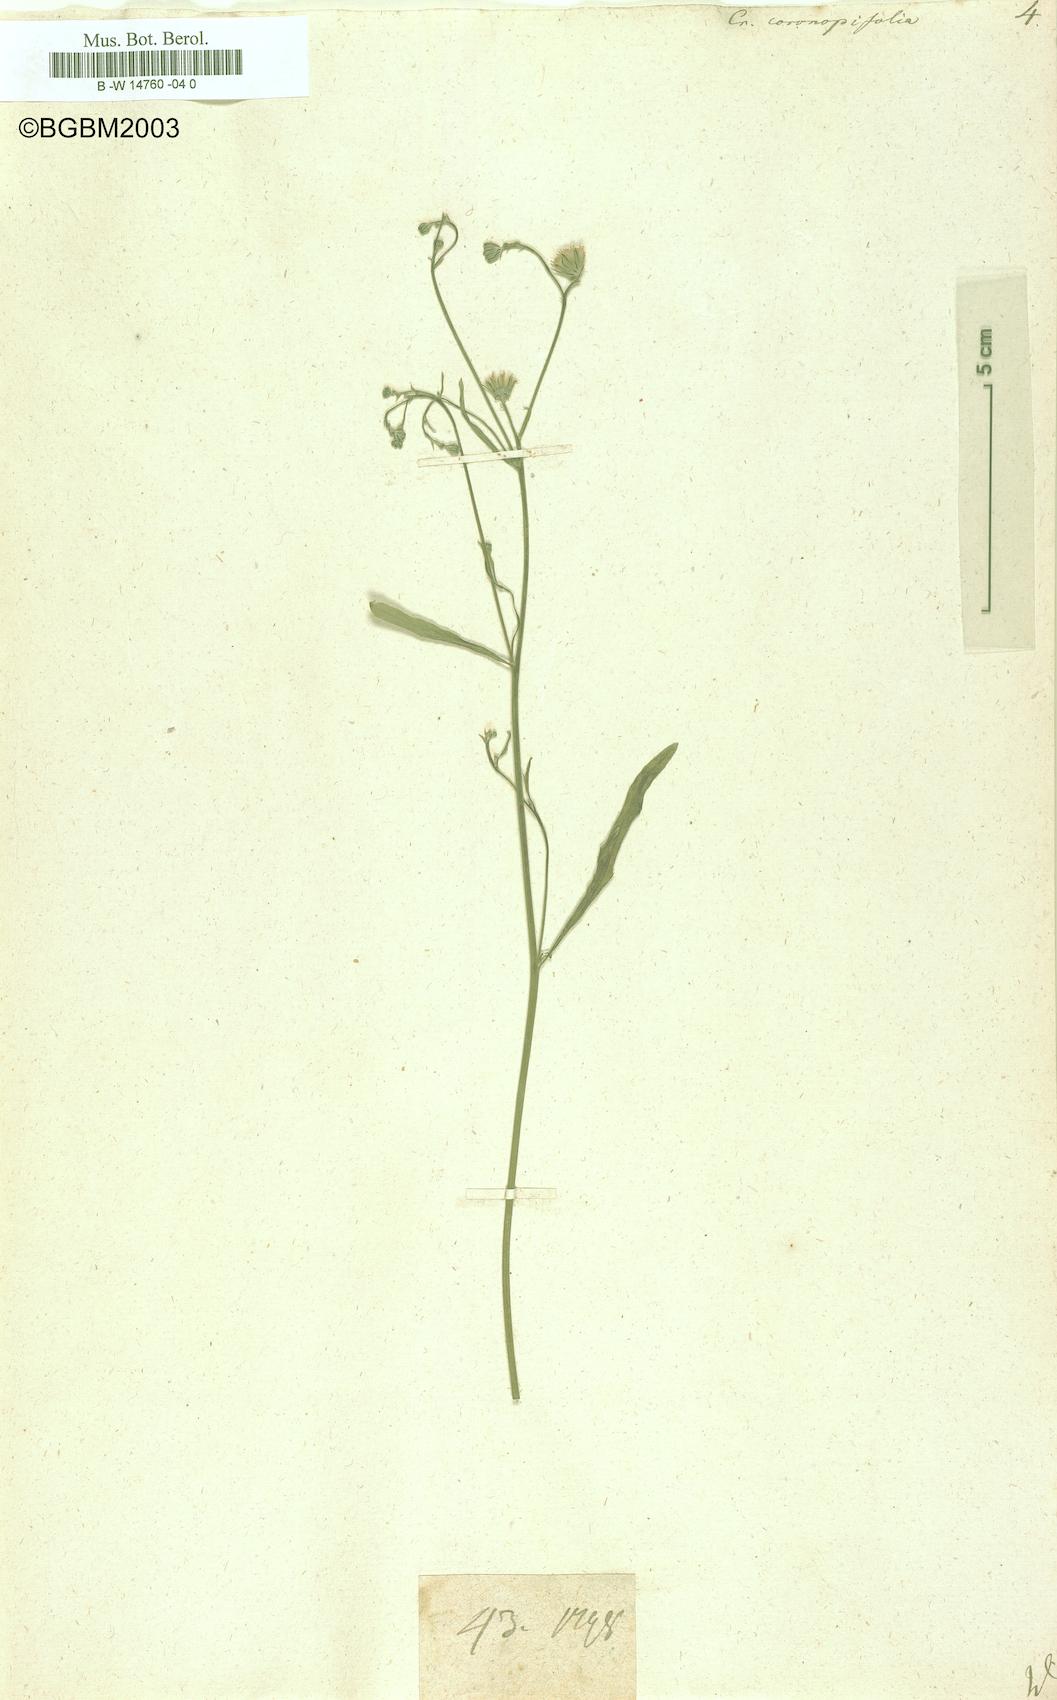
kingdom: Plantae
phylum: Tracheophyta
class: Magnoliopsida
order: Asterales
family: Asteraceae
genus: Tolpis
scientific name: Tolpis coronopifolia
